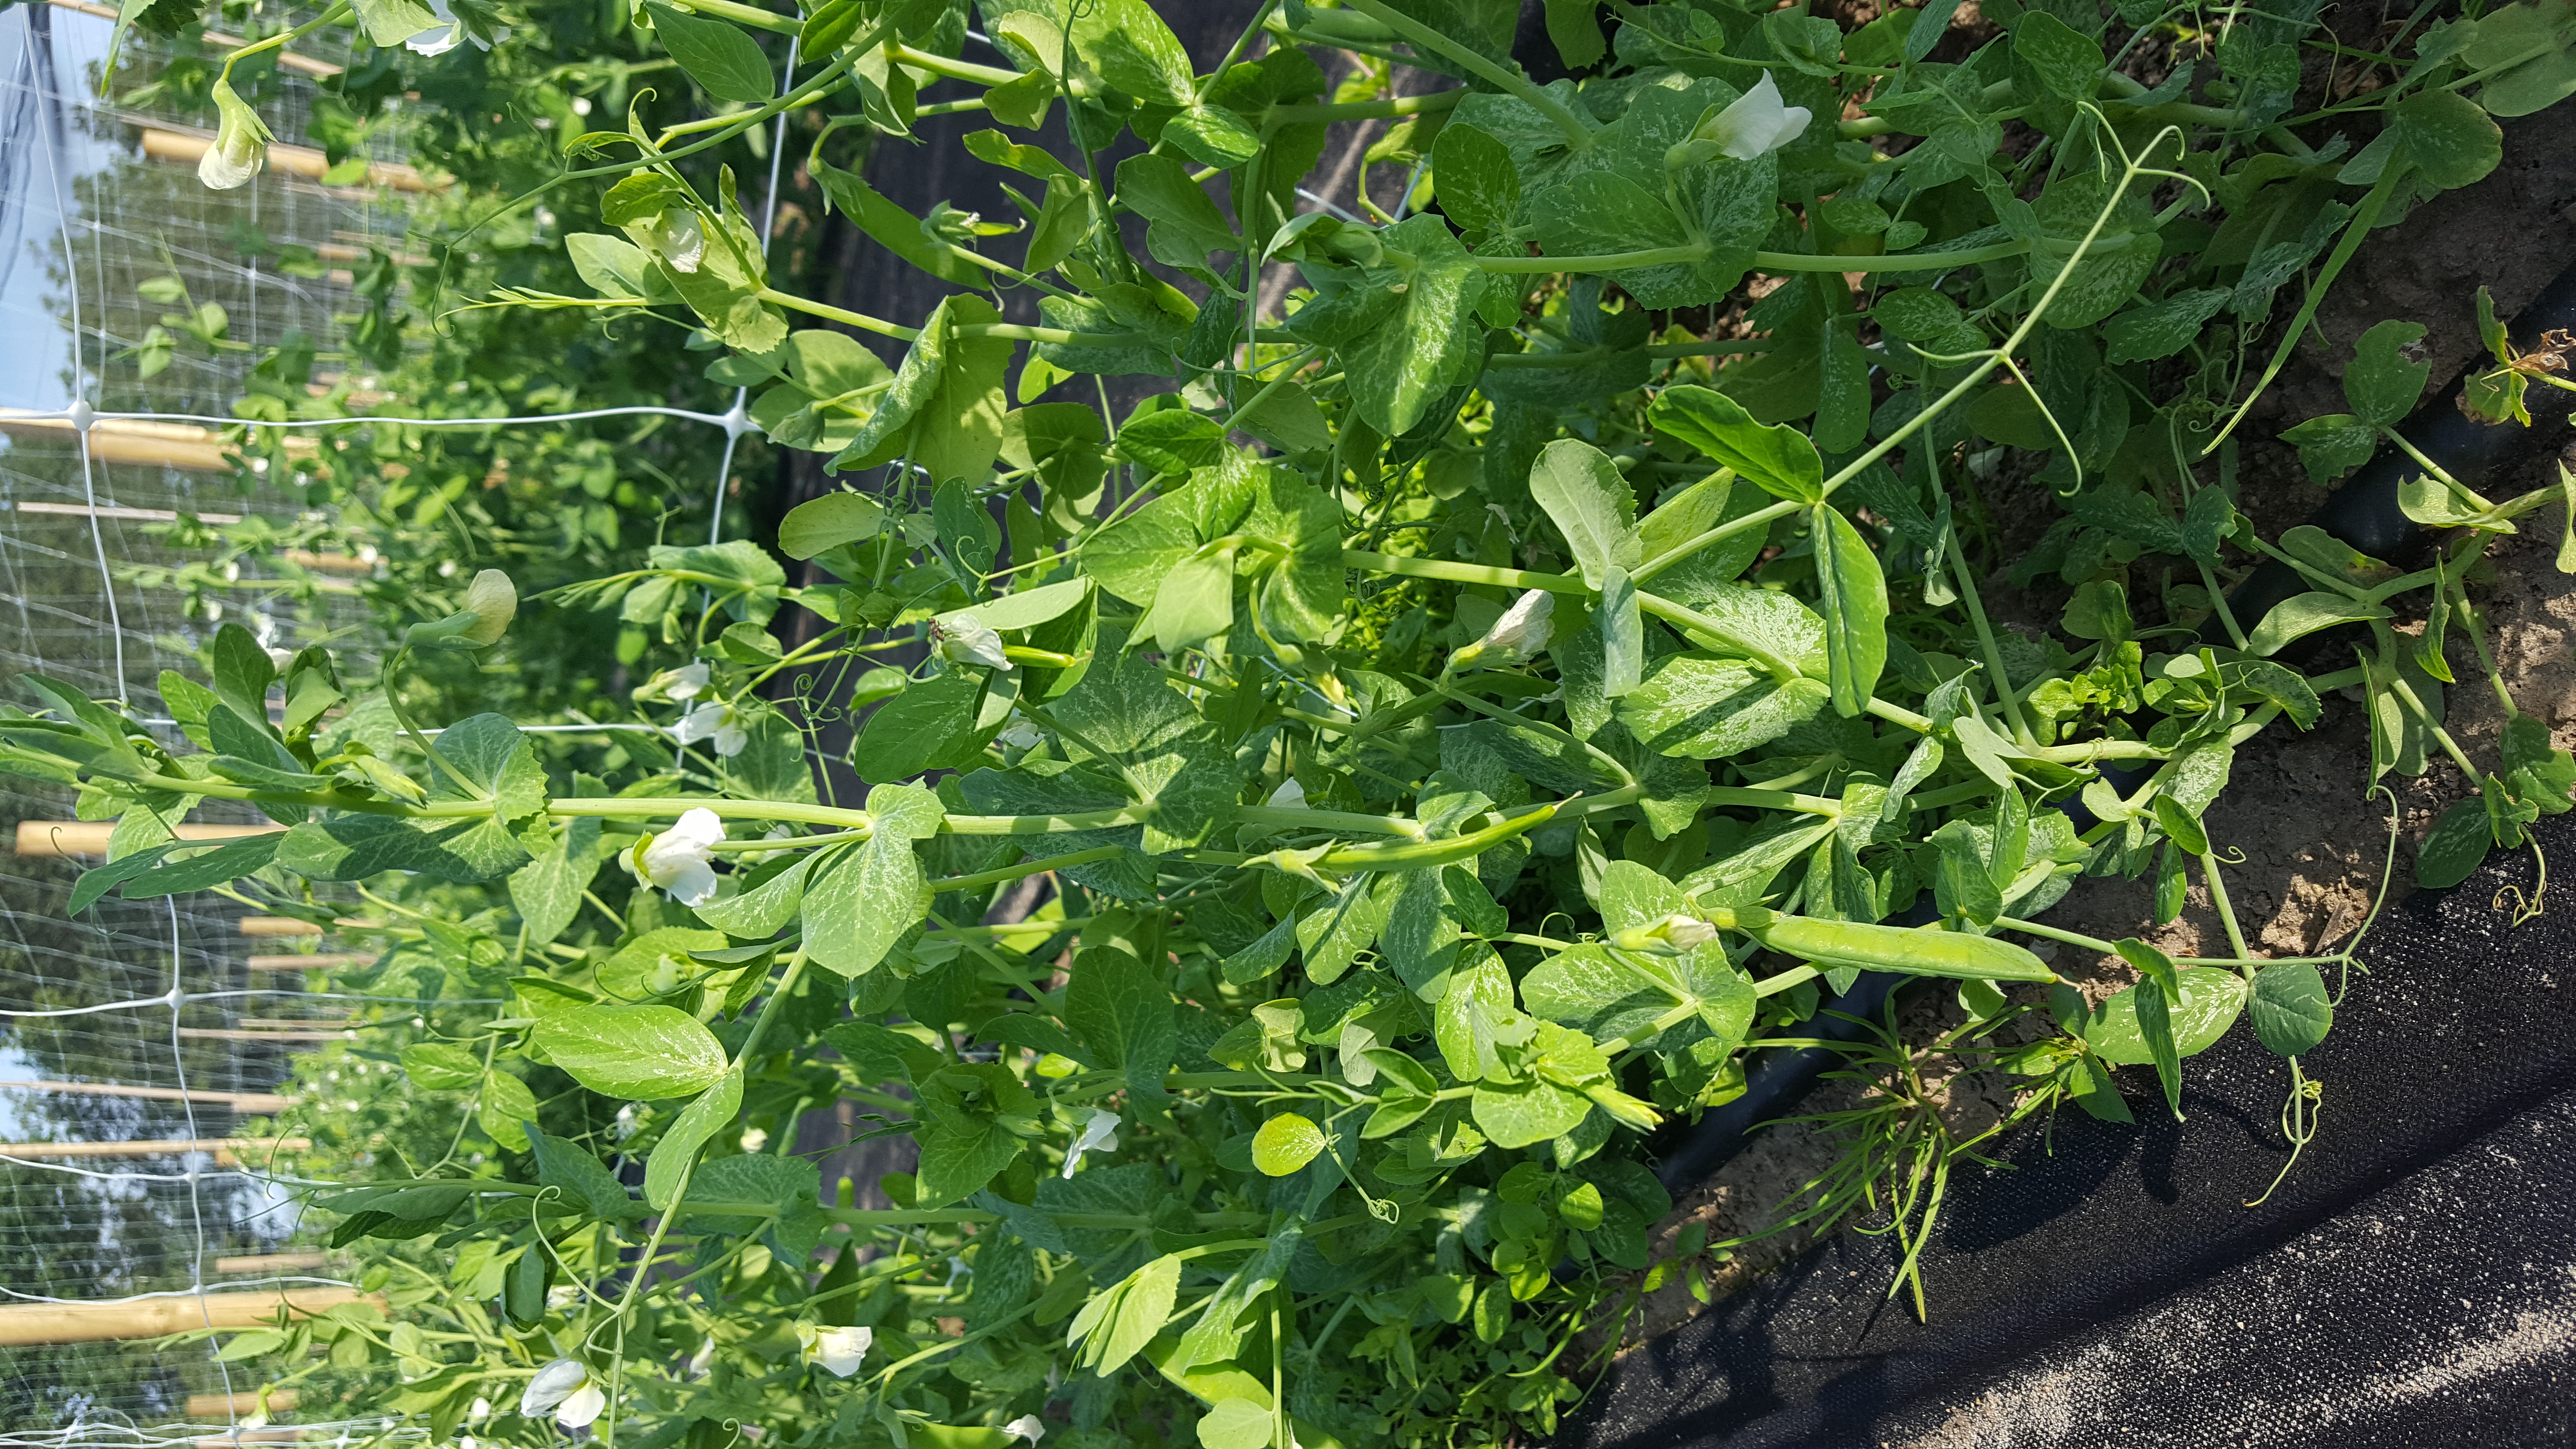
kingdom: Plantae
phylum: Tracheophyta
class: Magnoliopsida
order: Fabales
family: Fabaceae
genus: Lathyrus
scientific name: Lathyrus oleraceus
